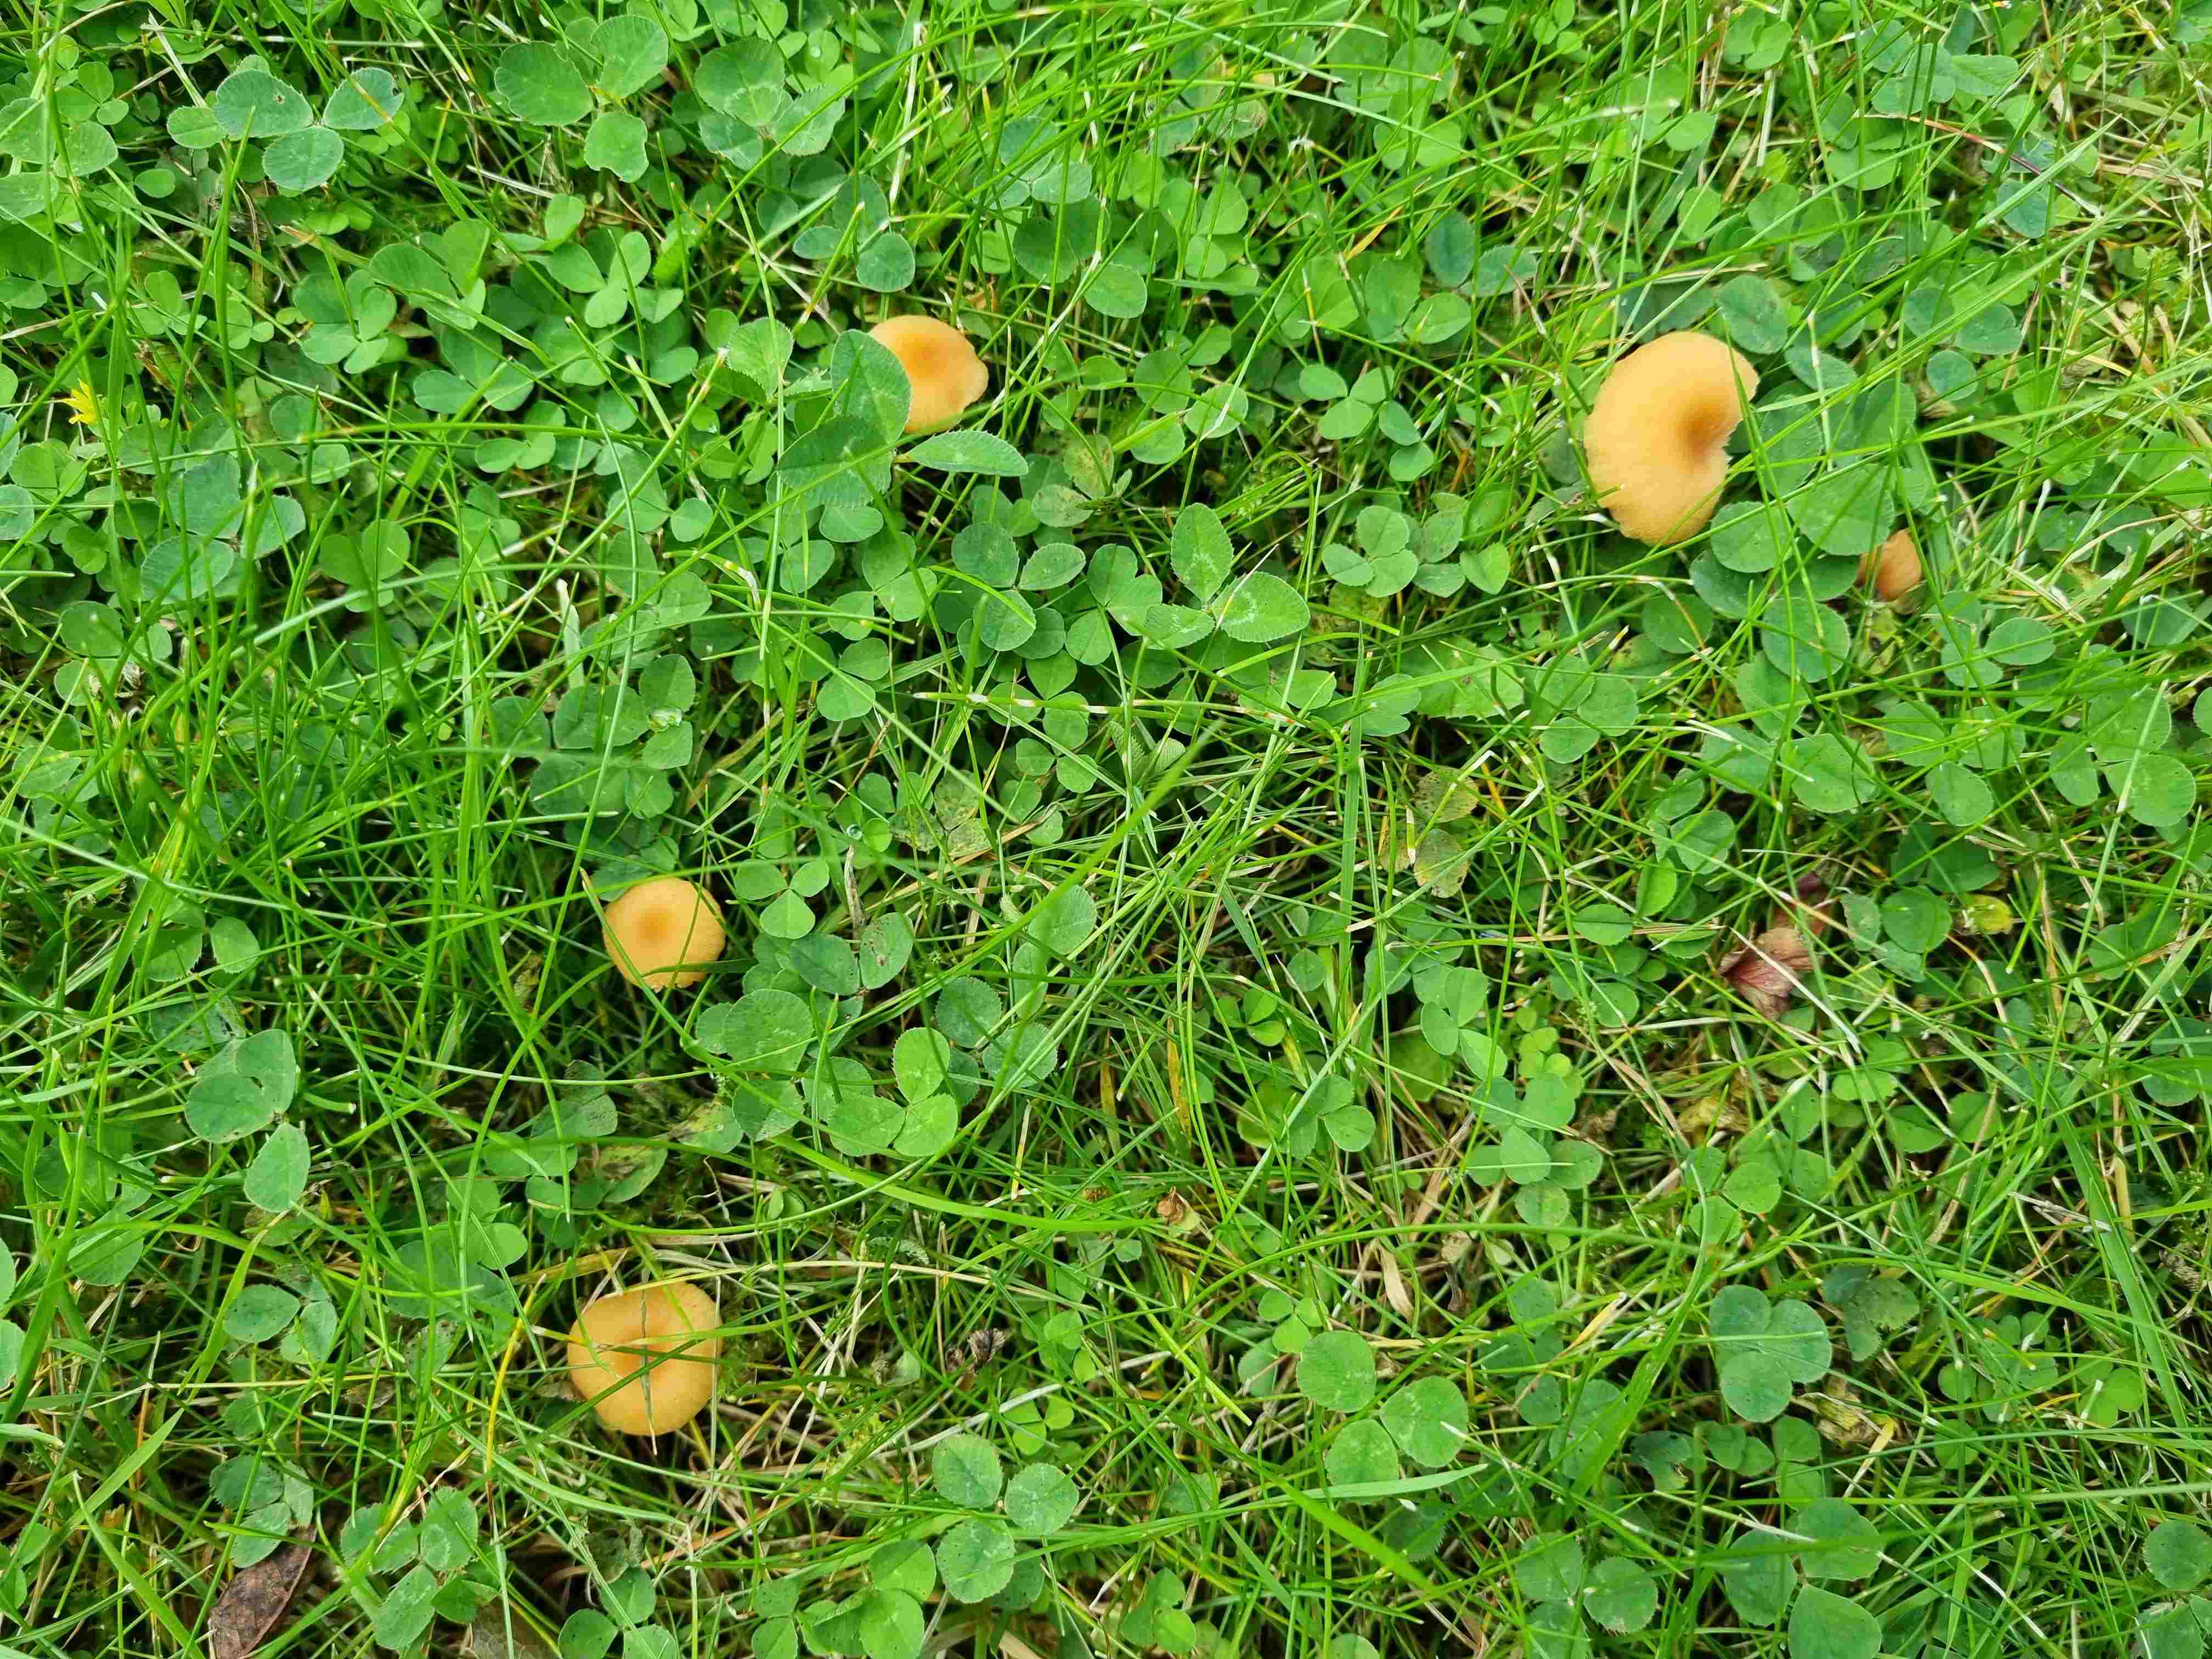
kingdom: Fungi
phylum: Basidiomycota
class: Agaricomycetes
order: Hymenochaetales
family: Rickenellaceae
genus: Rickenella
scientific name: Rickenella fibula
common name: orange mosnavlehat
